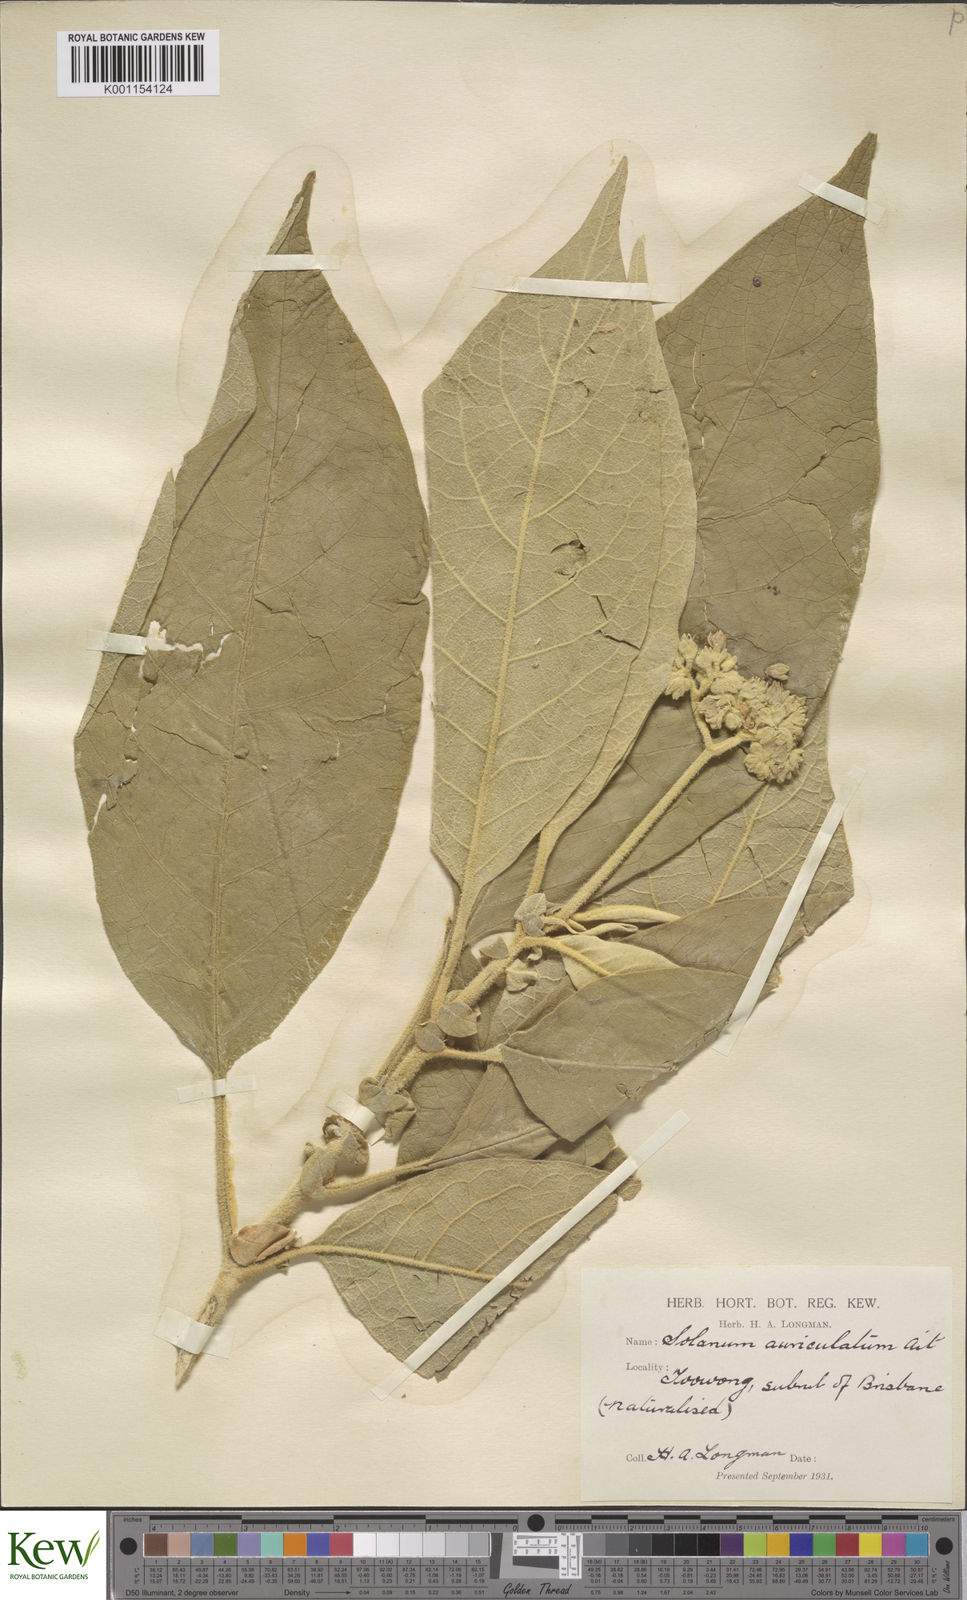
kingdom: Plantae
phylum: Tracheophyta
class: Magnoliopsida
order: Solanales
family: Solanaceae
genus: Solanum
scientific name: Solanum mauritianum
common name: Earleaf nightshade
